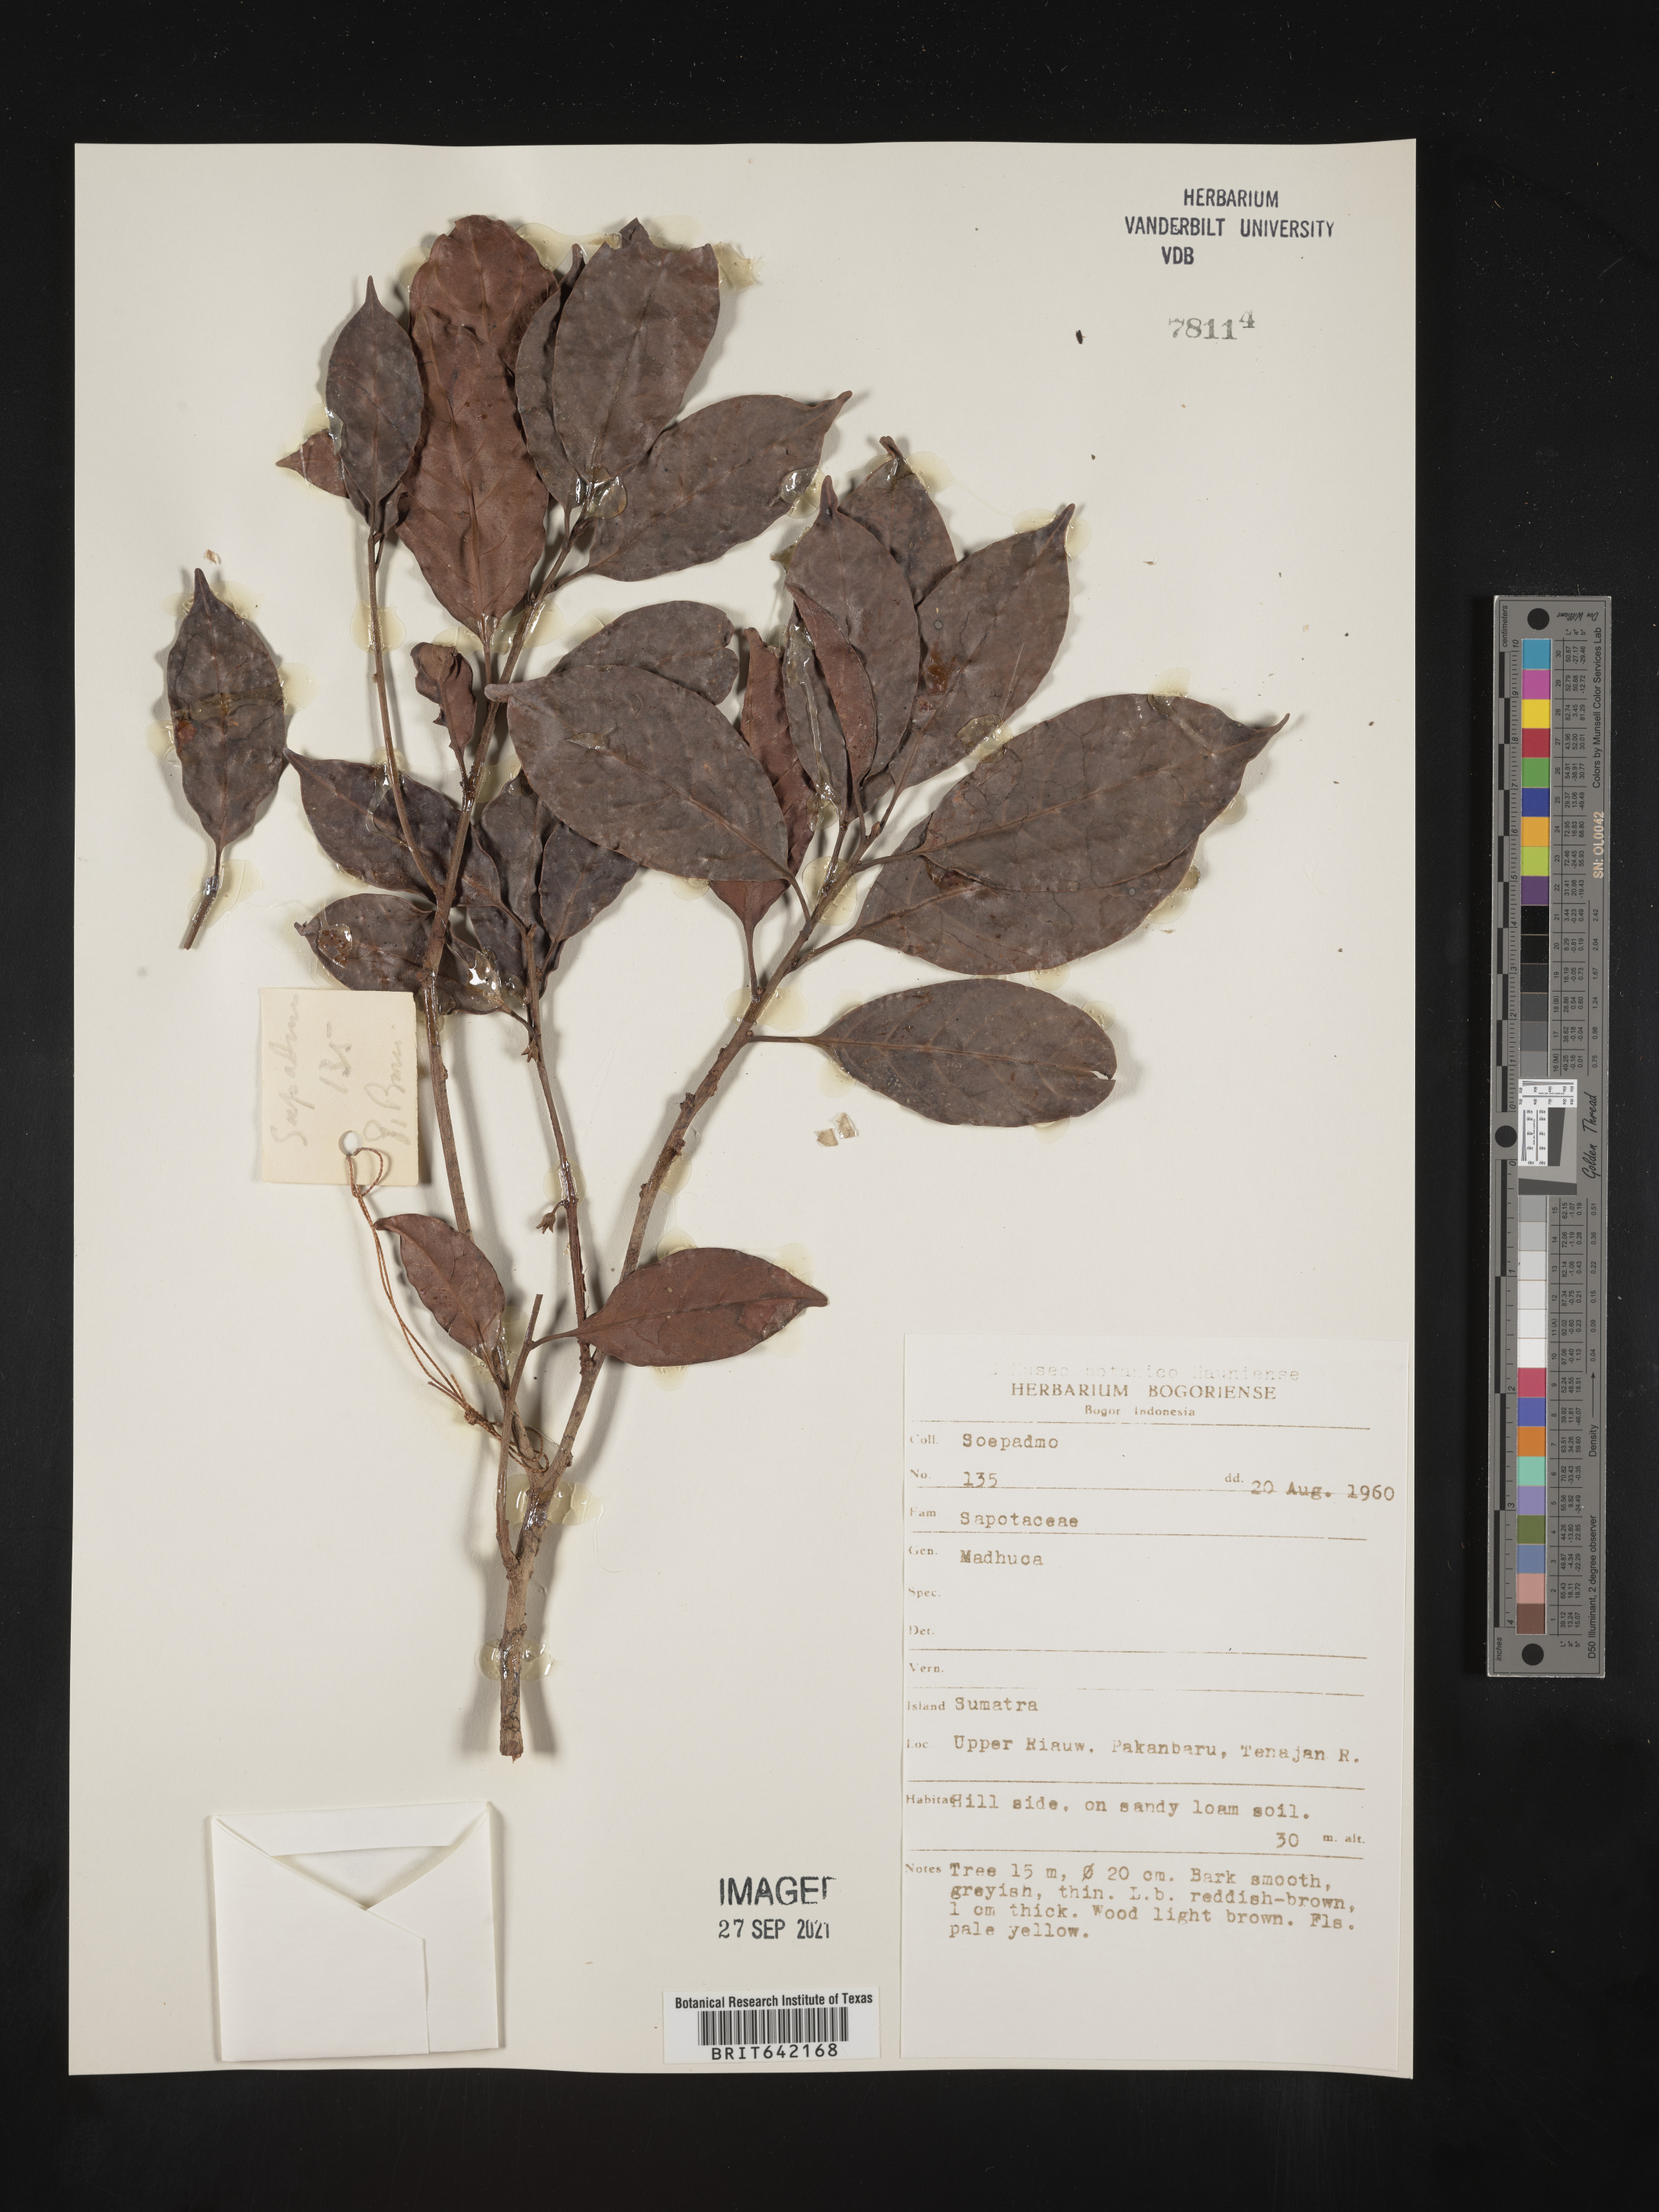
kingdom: Plantae
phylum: Tracheophyta
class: Magnoliopsida
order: Ericales
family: Sapotaceae
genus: Madhuca
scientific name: Madhuca
